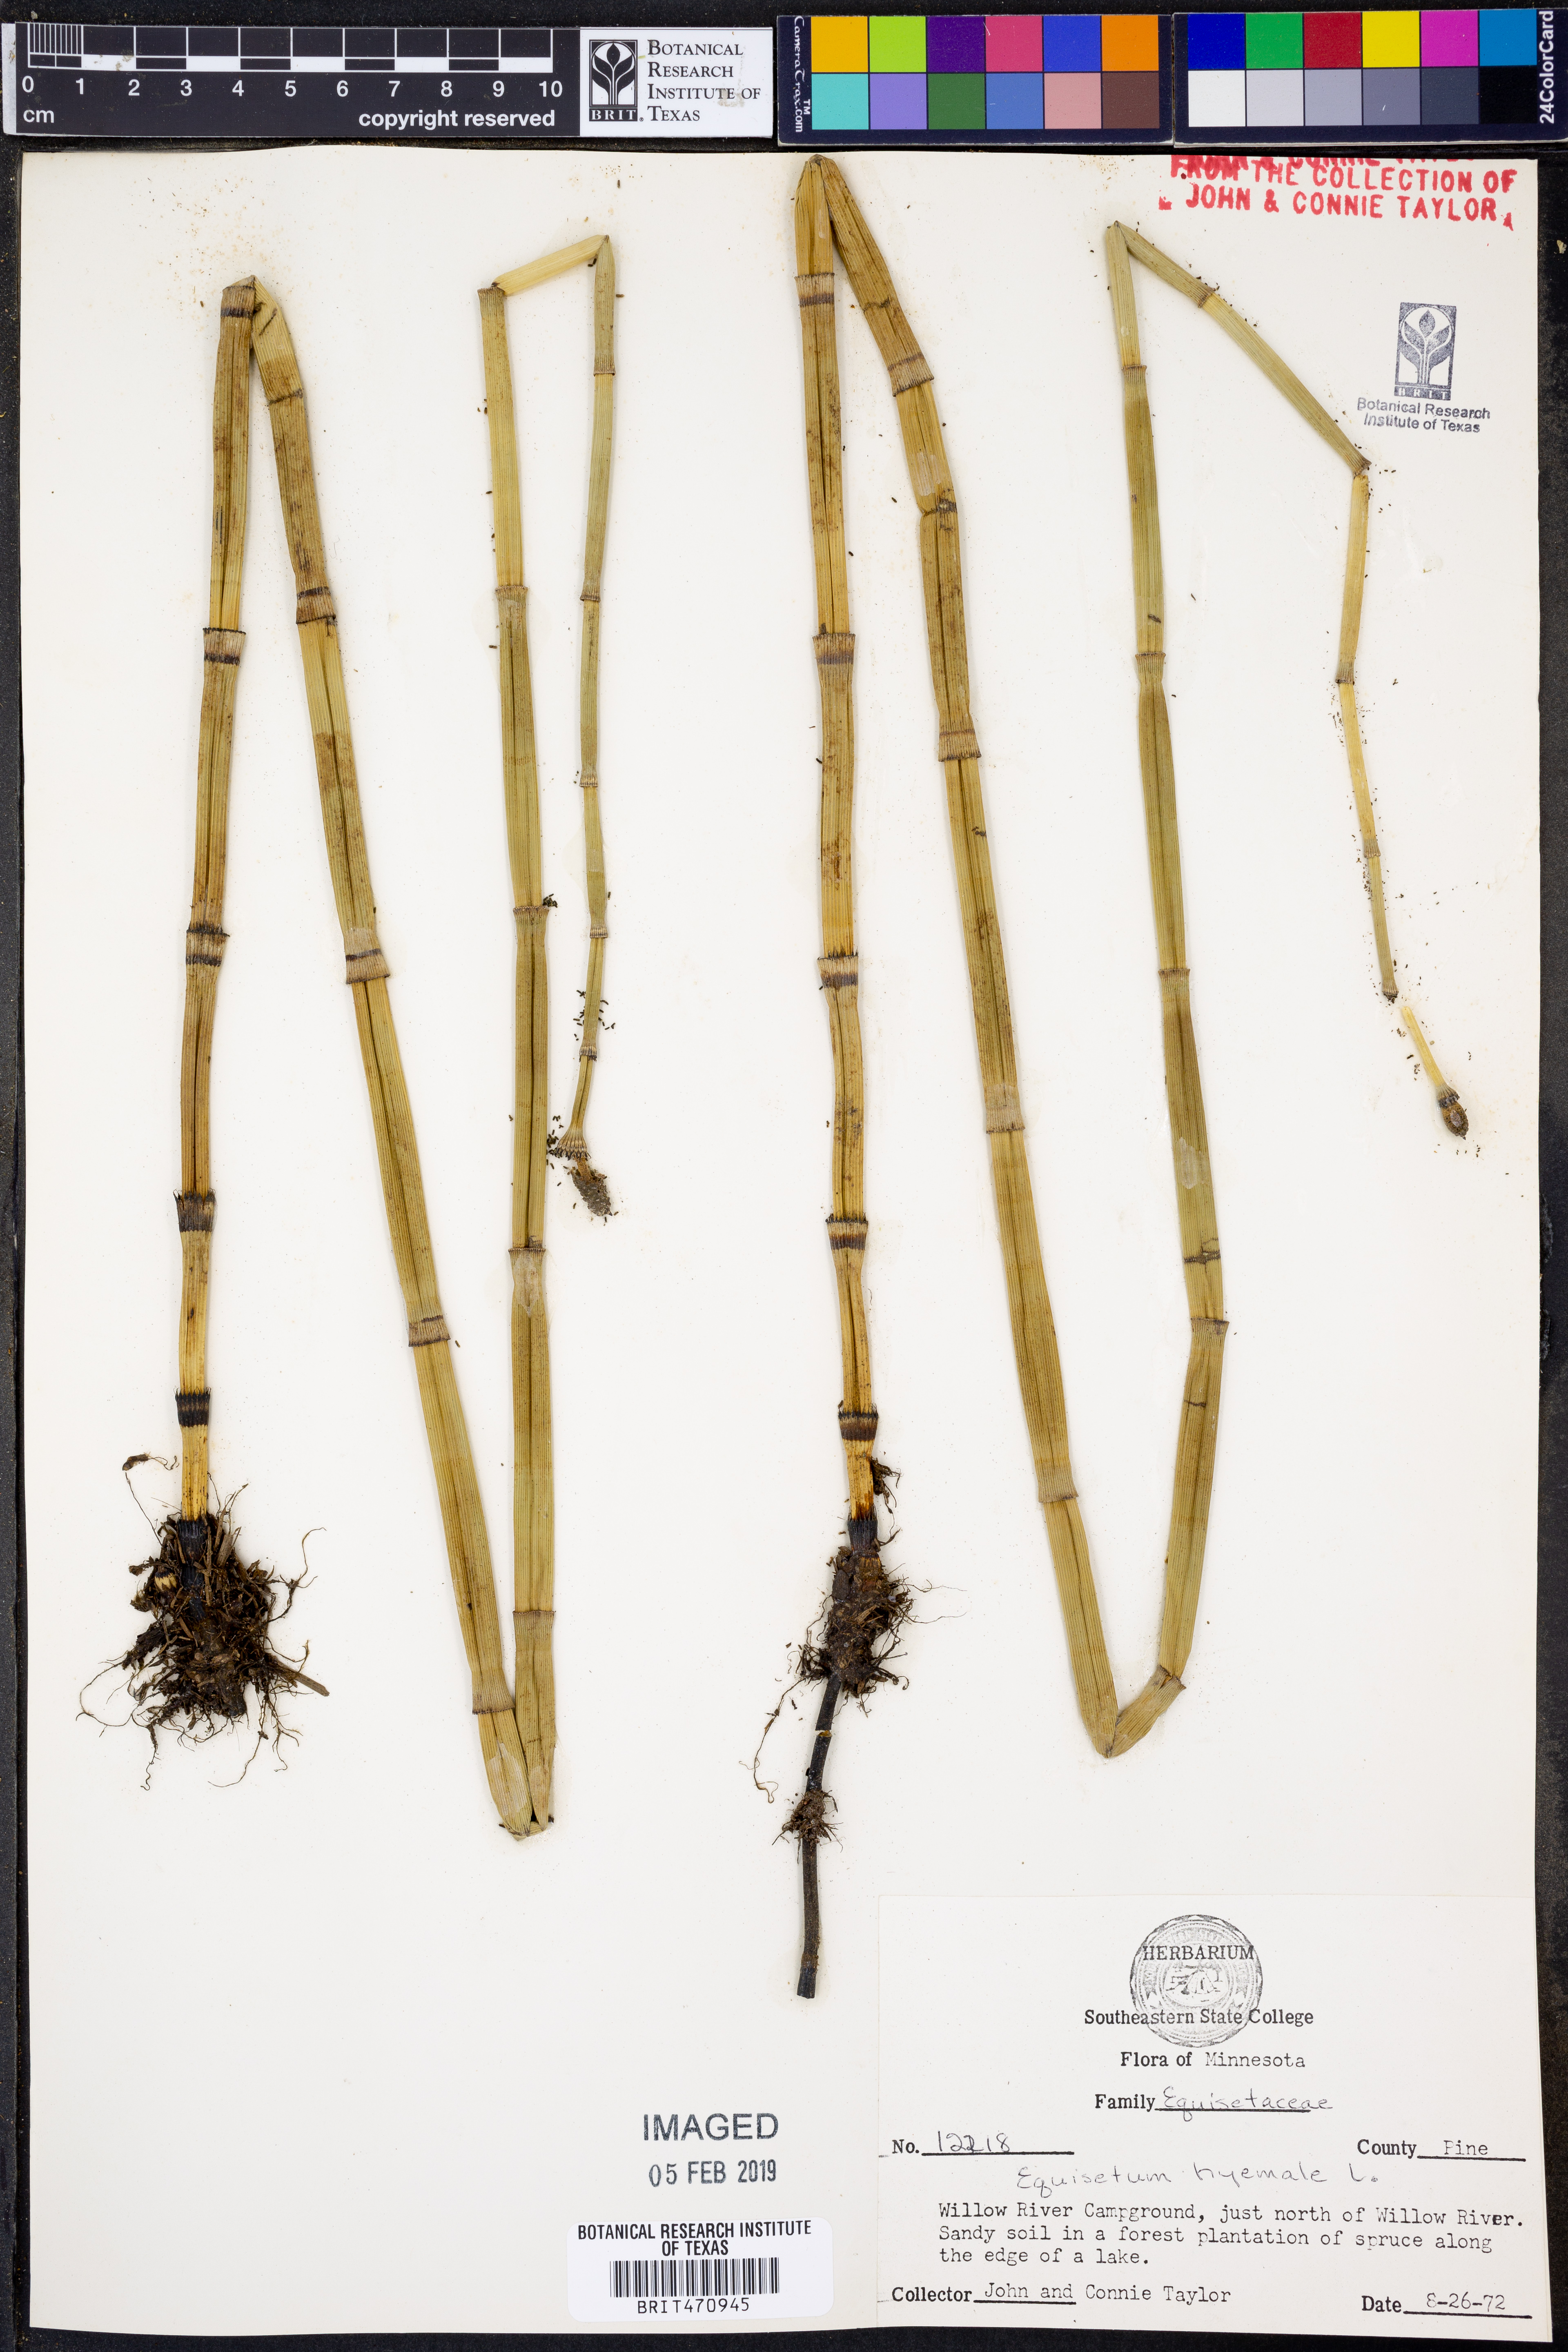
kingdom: Plantae
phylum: Tracheophyta
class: Polypodiopsida
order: Equisetales
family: Equisetaceae
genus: Equisetum
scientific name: Equisetum hyemale
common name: Rough horsetail
